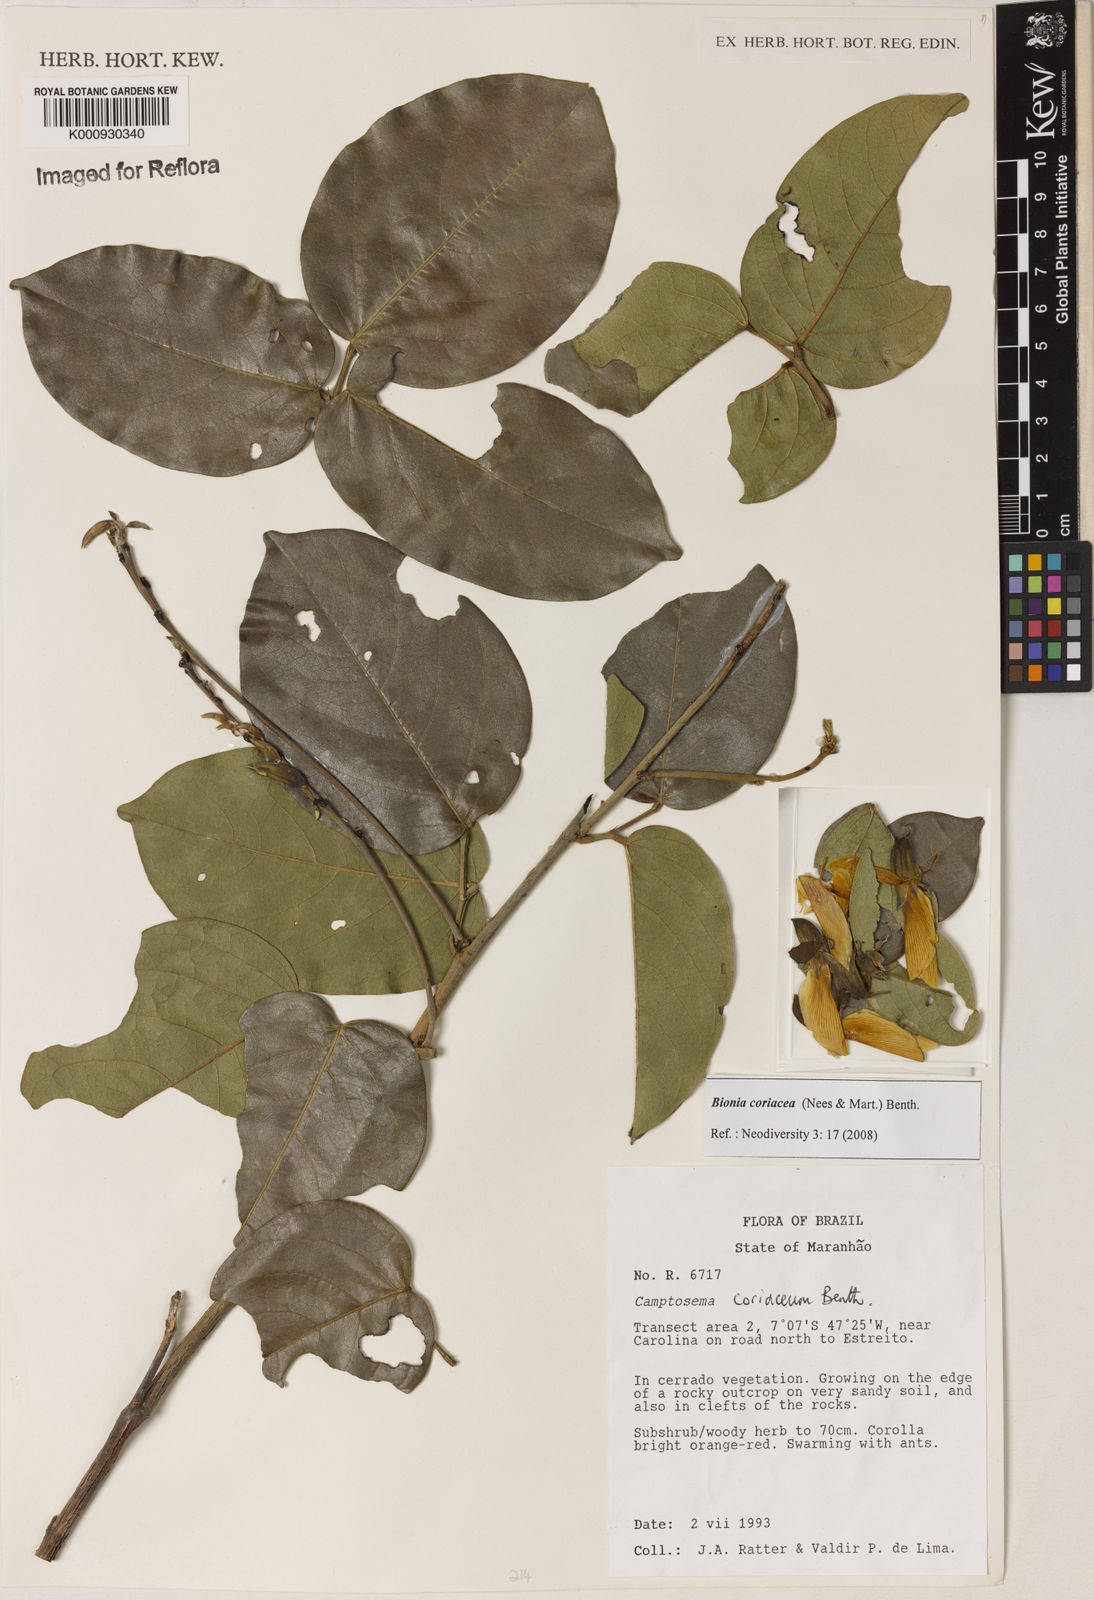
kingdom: Plantae
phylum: Tracheophyta
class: Magnoliopsida
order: Fabales
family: Fabaceae
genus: Camptosema
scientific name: Camptosema coriaceum
